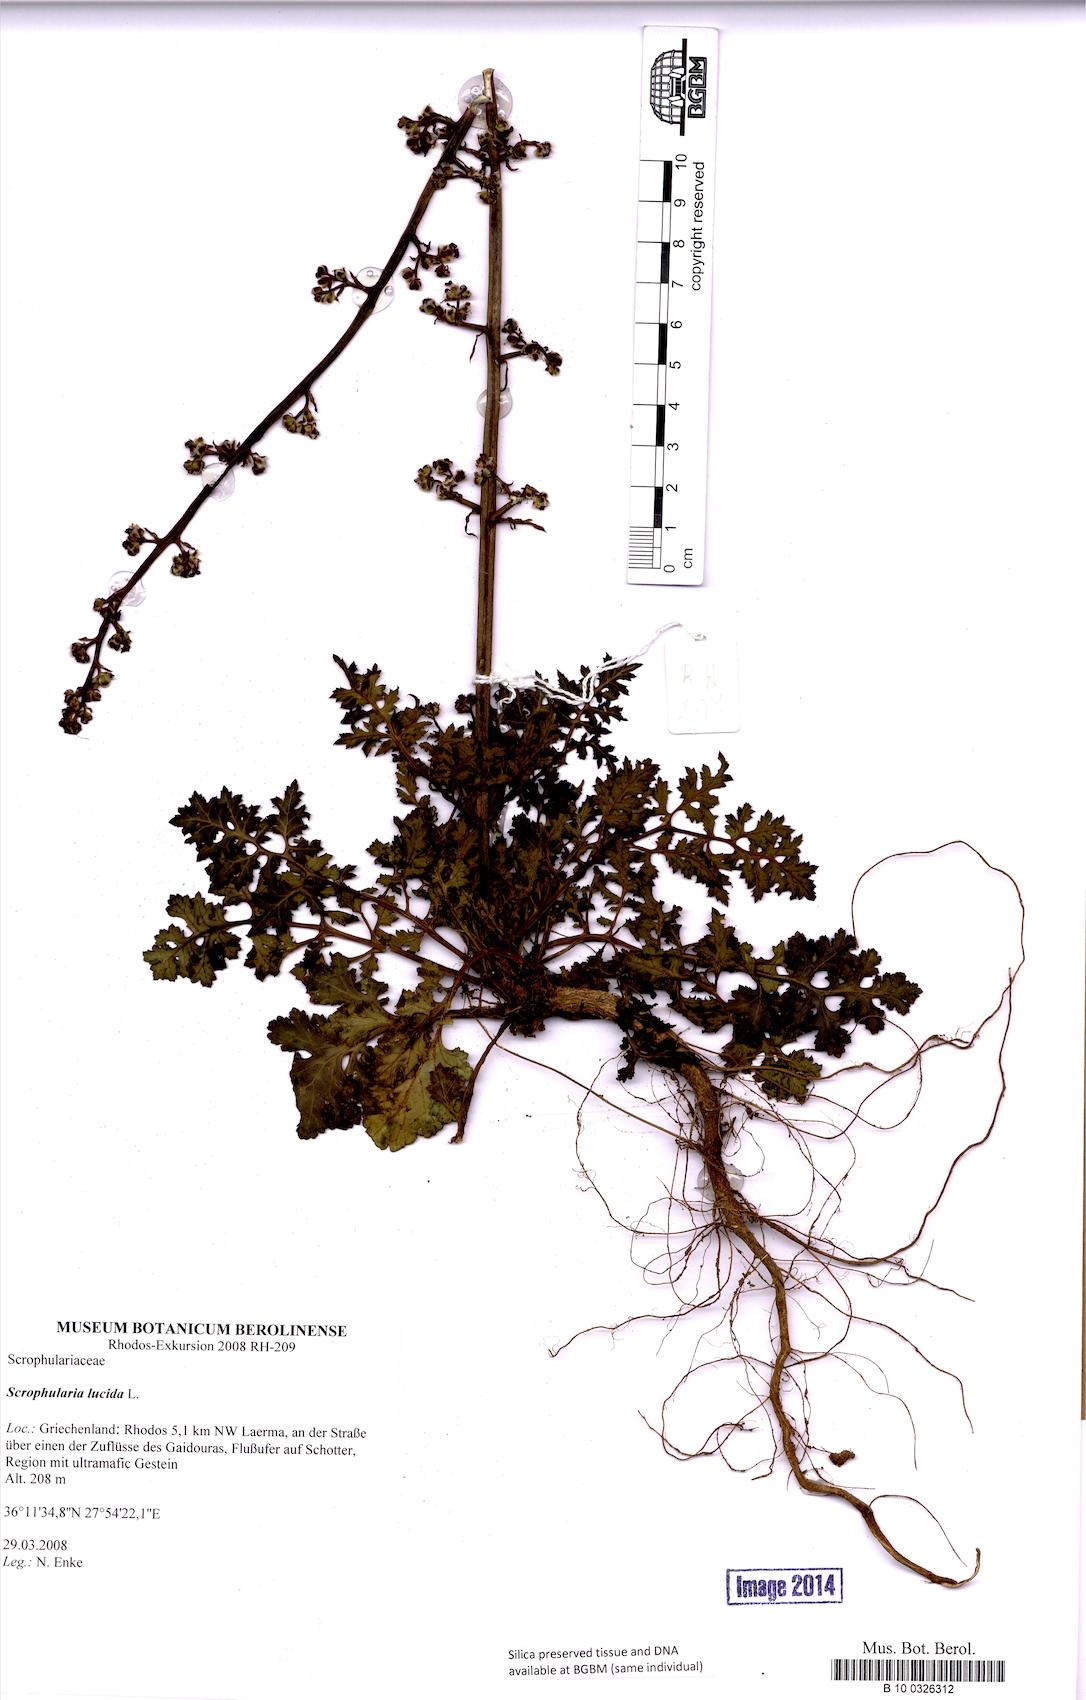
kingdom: Plantae
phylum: Tracheophyta
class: Magnoliopsida
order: Lamiales
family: Scrophulariaceae
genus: Scrophularia
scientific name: Scrophularia lucida
